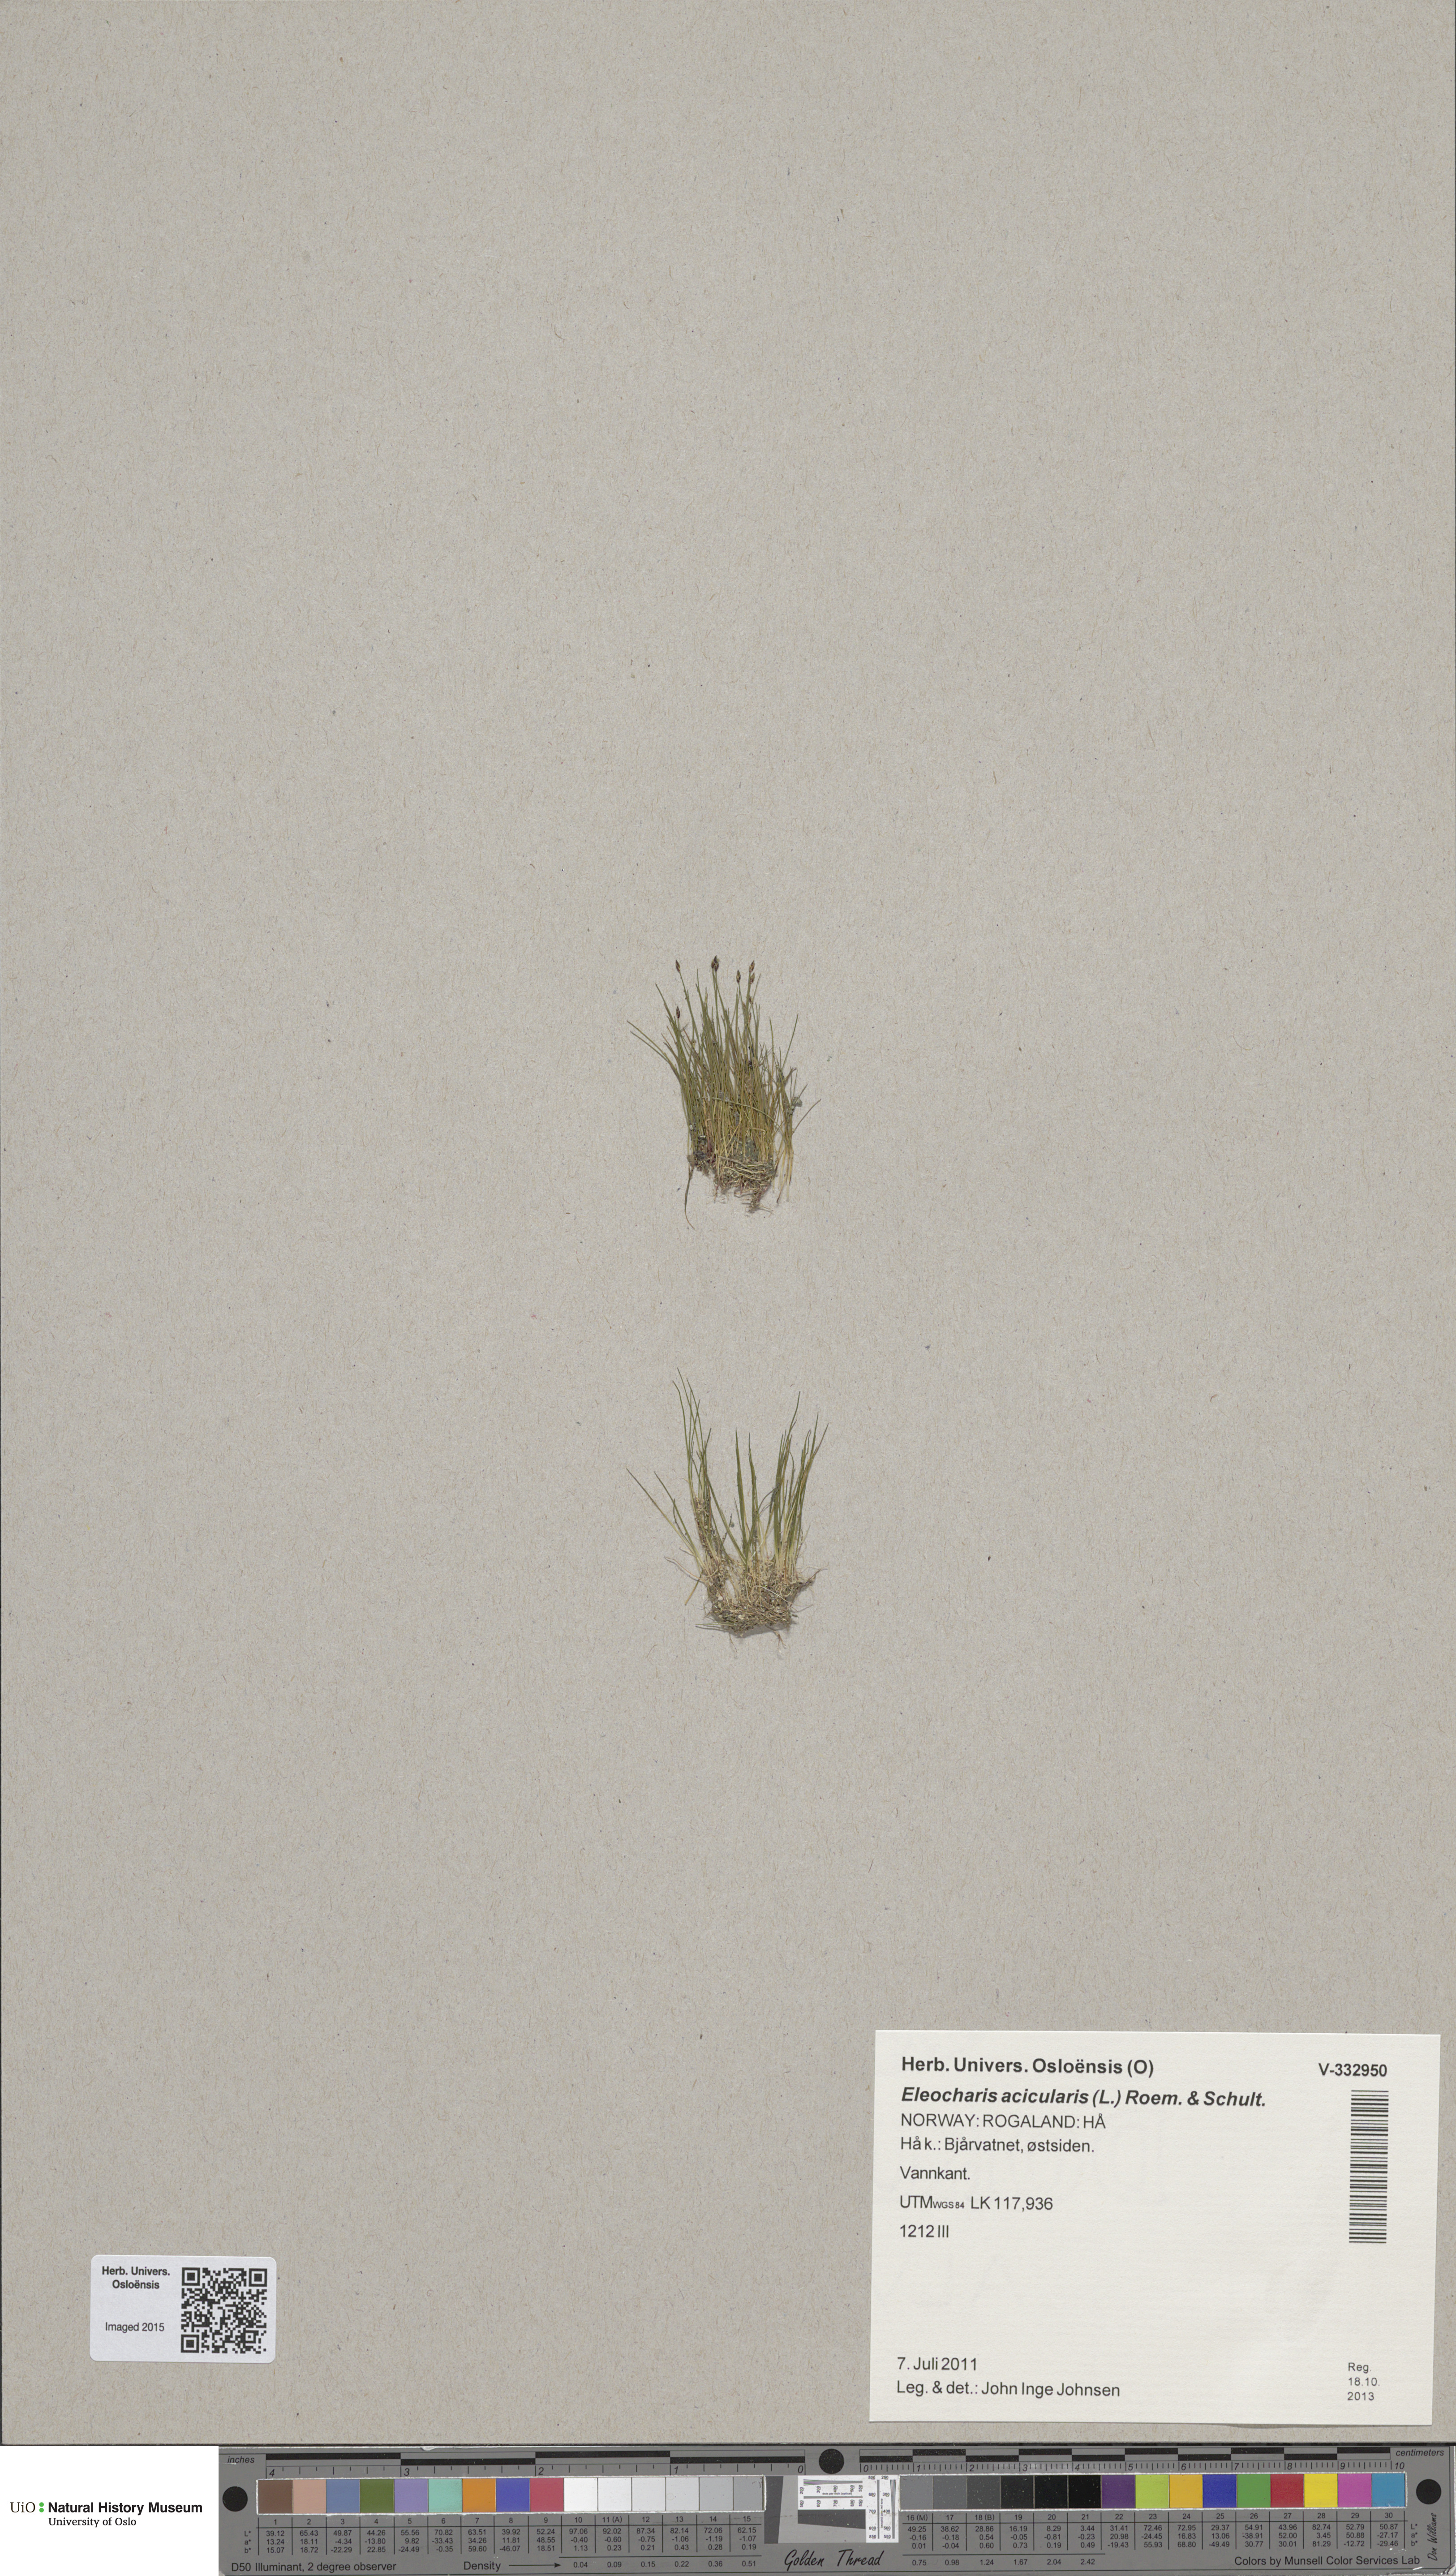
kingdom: Plantae
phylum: Tracheophyta
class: Liliopsida
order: Poales
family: Cyperaceae
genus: Eleocharis
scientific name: Eleocharis acicularis
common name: Needle spike-rush
